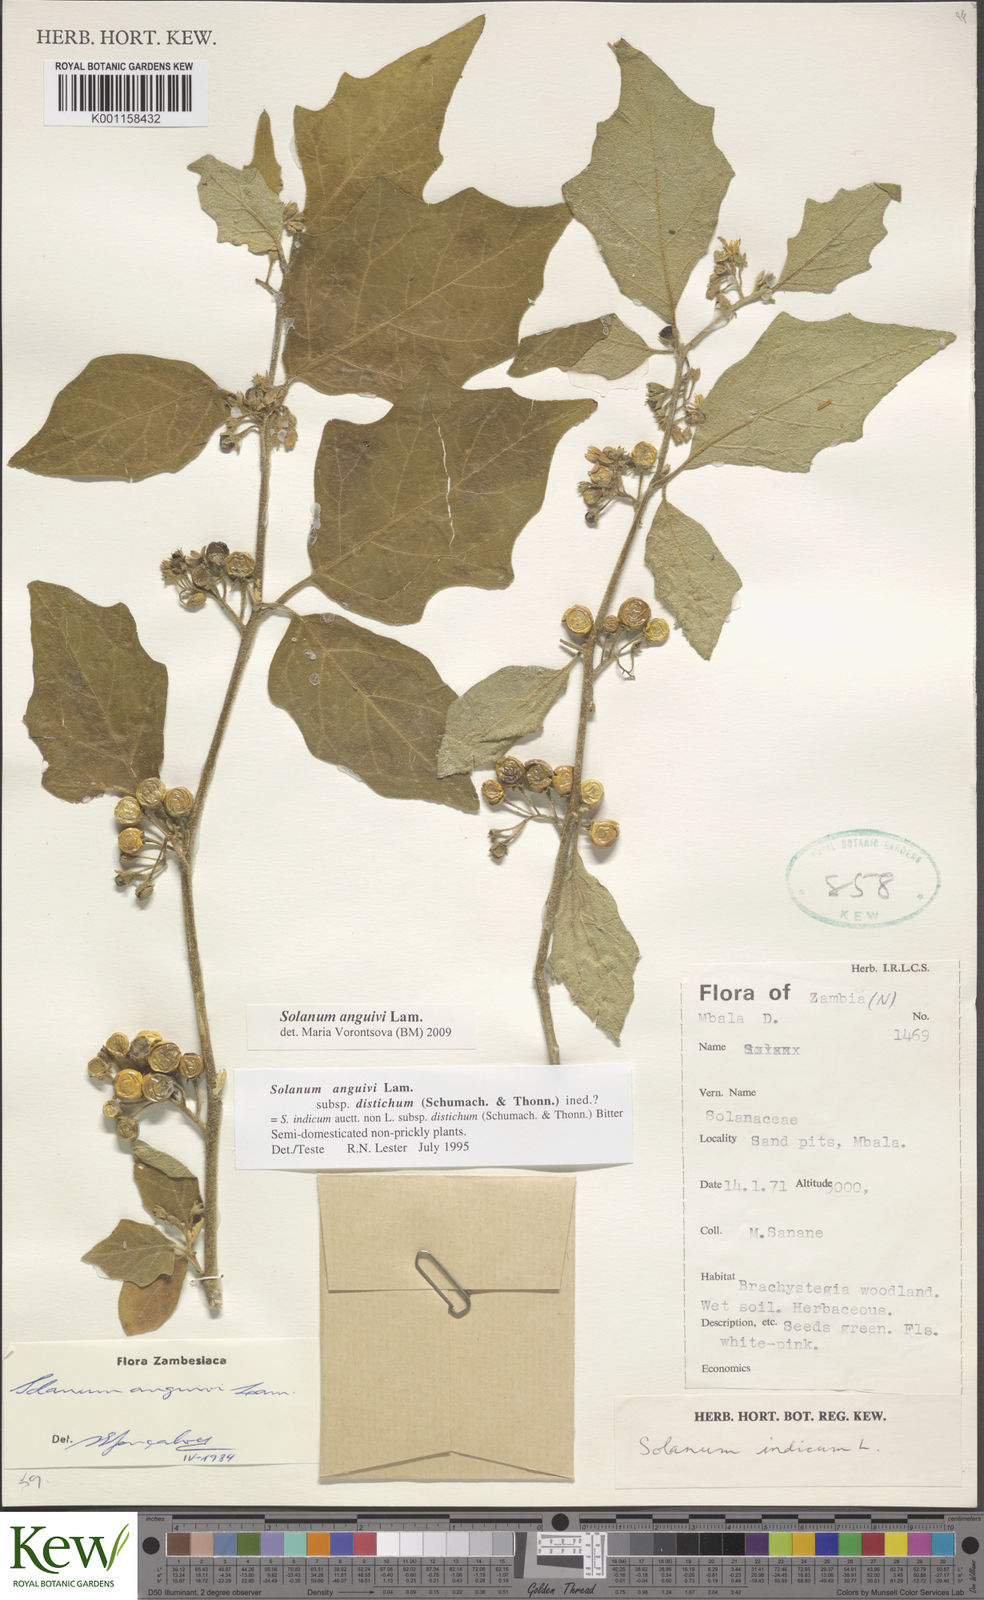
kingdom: Plantae
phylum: Tracheophyta
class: Magnoliopsida
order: Solanales
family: Solanaceae
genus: Solanum
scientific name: Solanum anguivi
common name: Forest bitterberry
